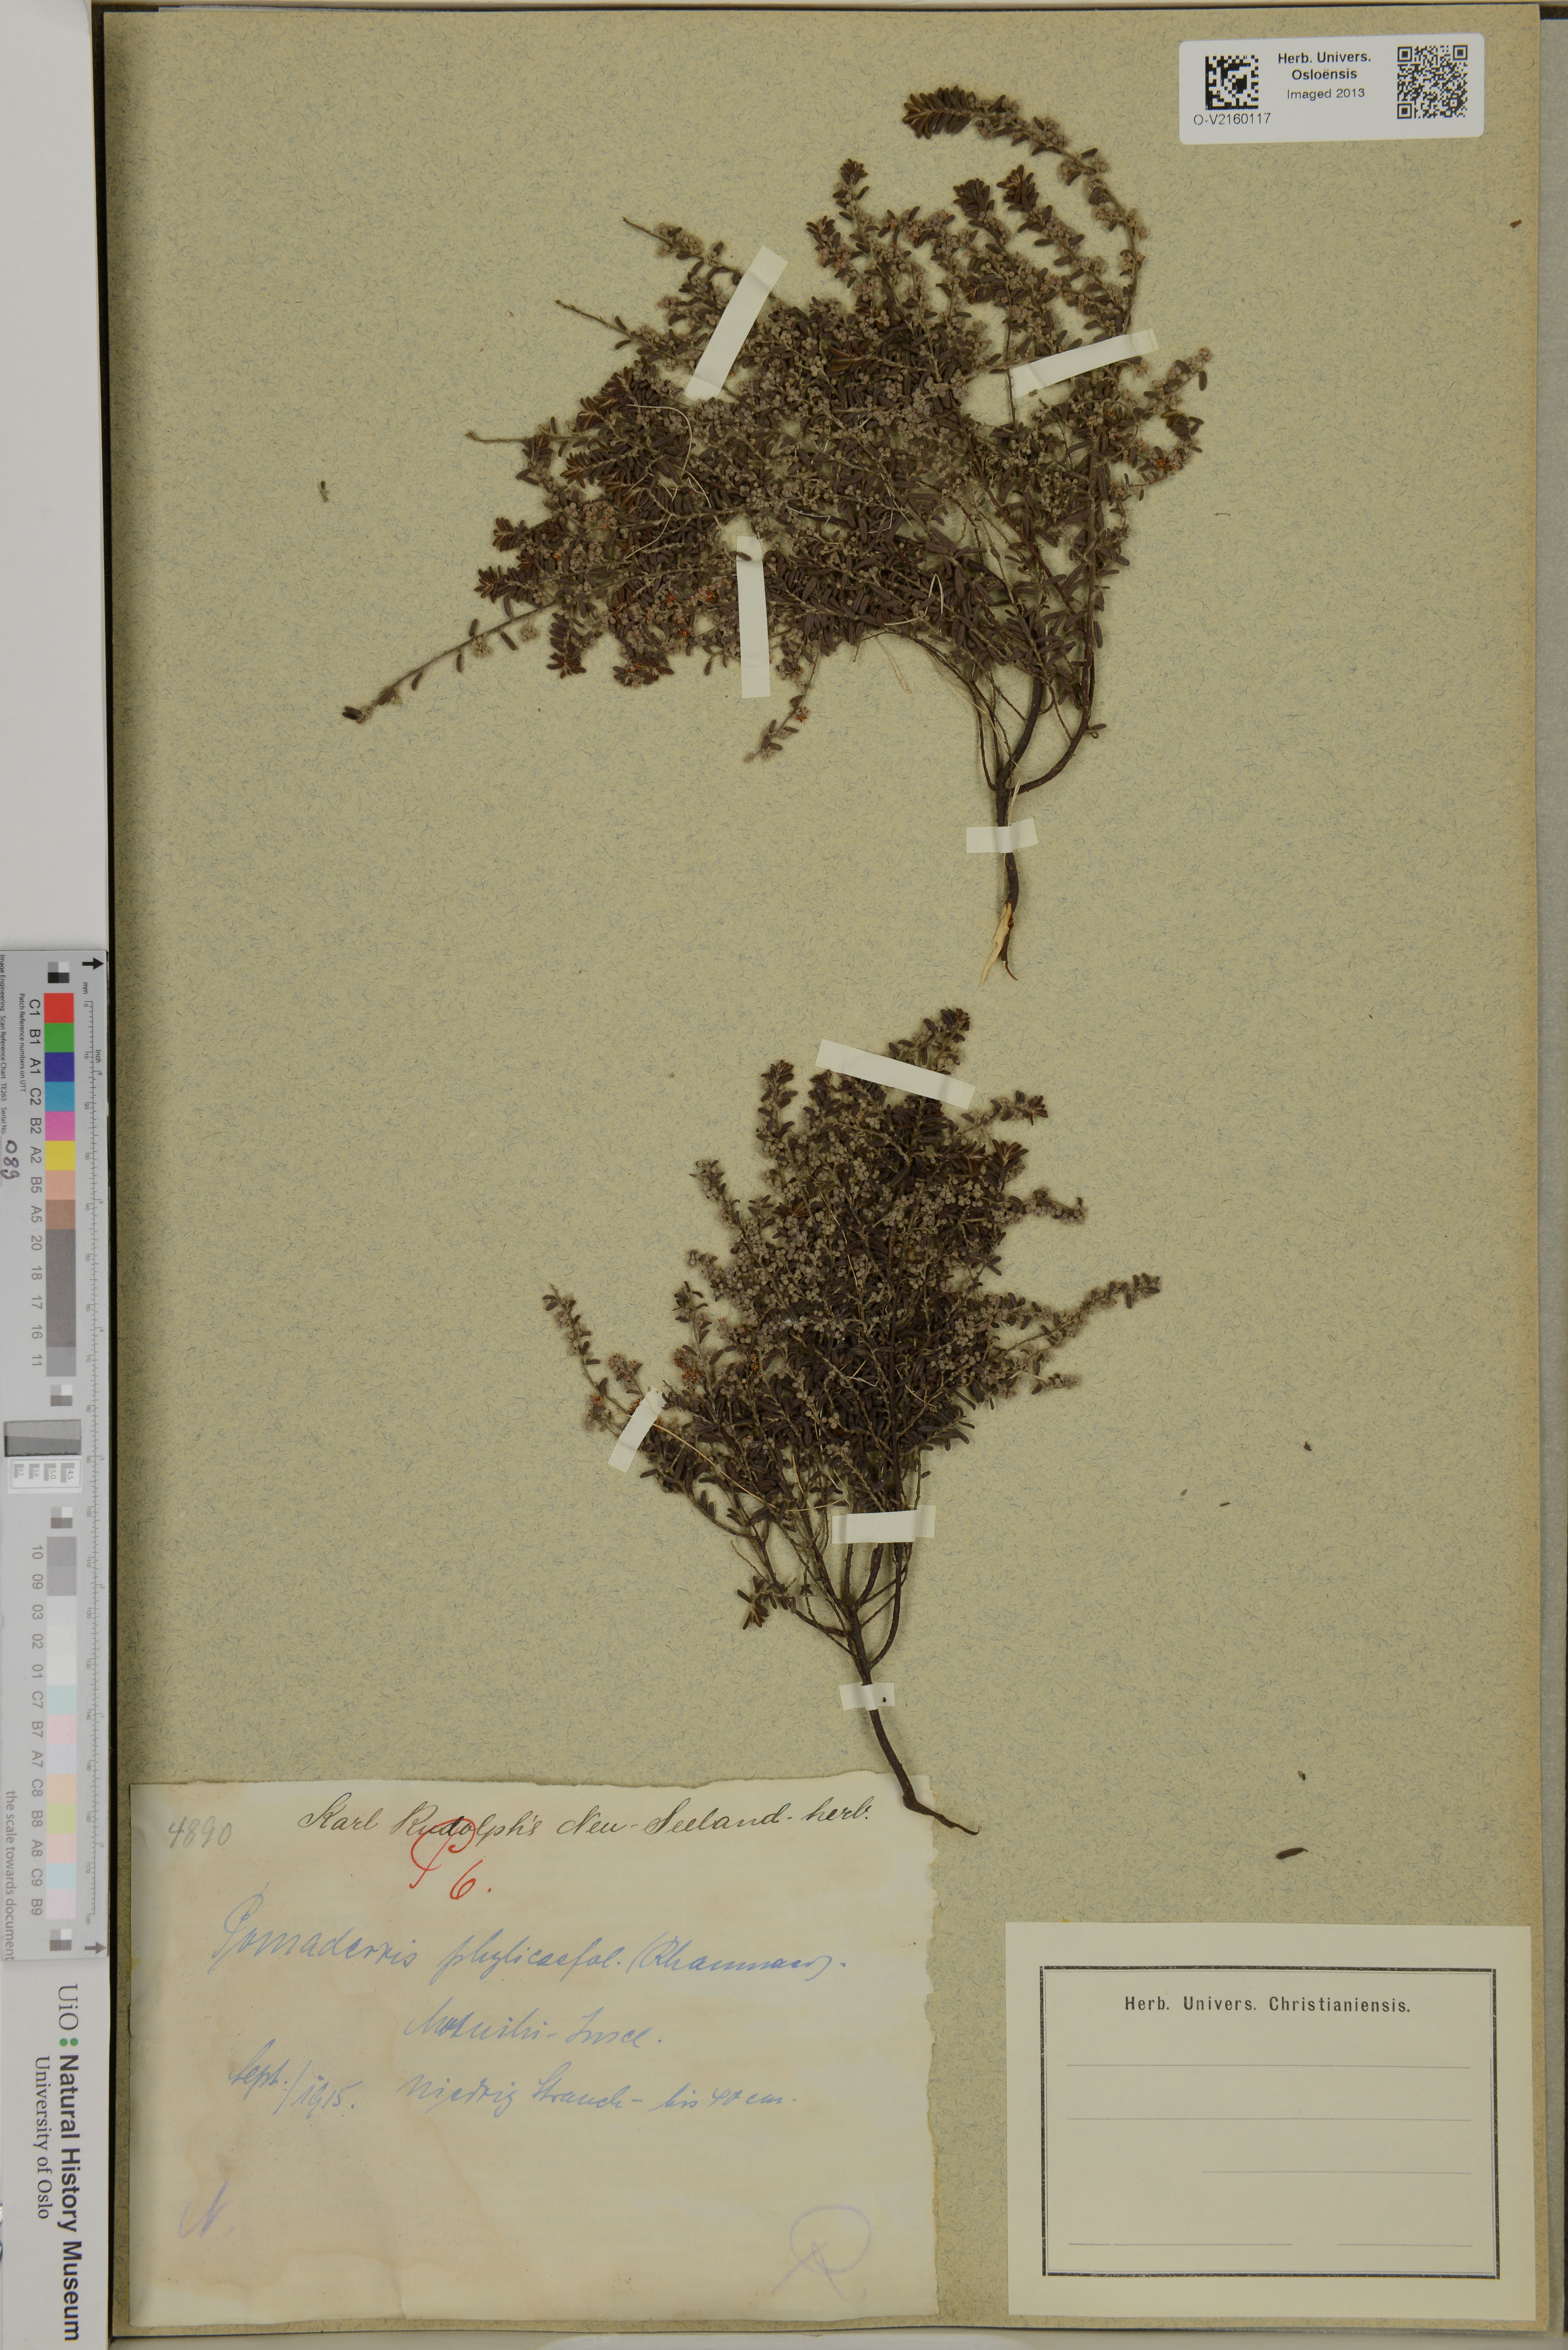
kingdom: Plantae
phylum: Tracheophyta
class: Magnoliopsida
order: Rosales
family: Rhamnaceae
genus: Pomaderris
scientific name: Pomaderris phylicifolia
